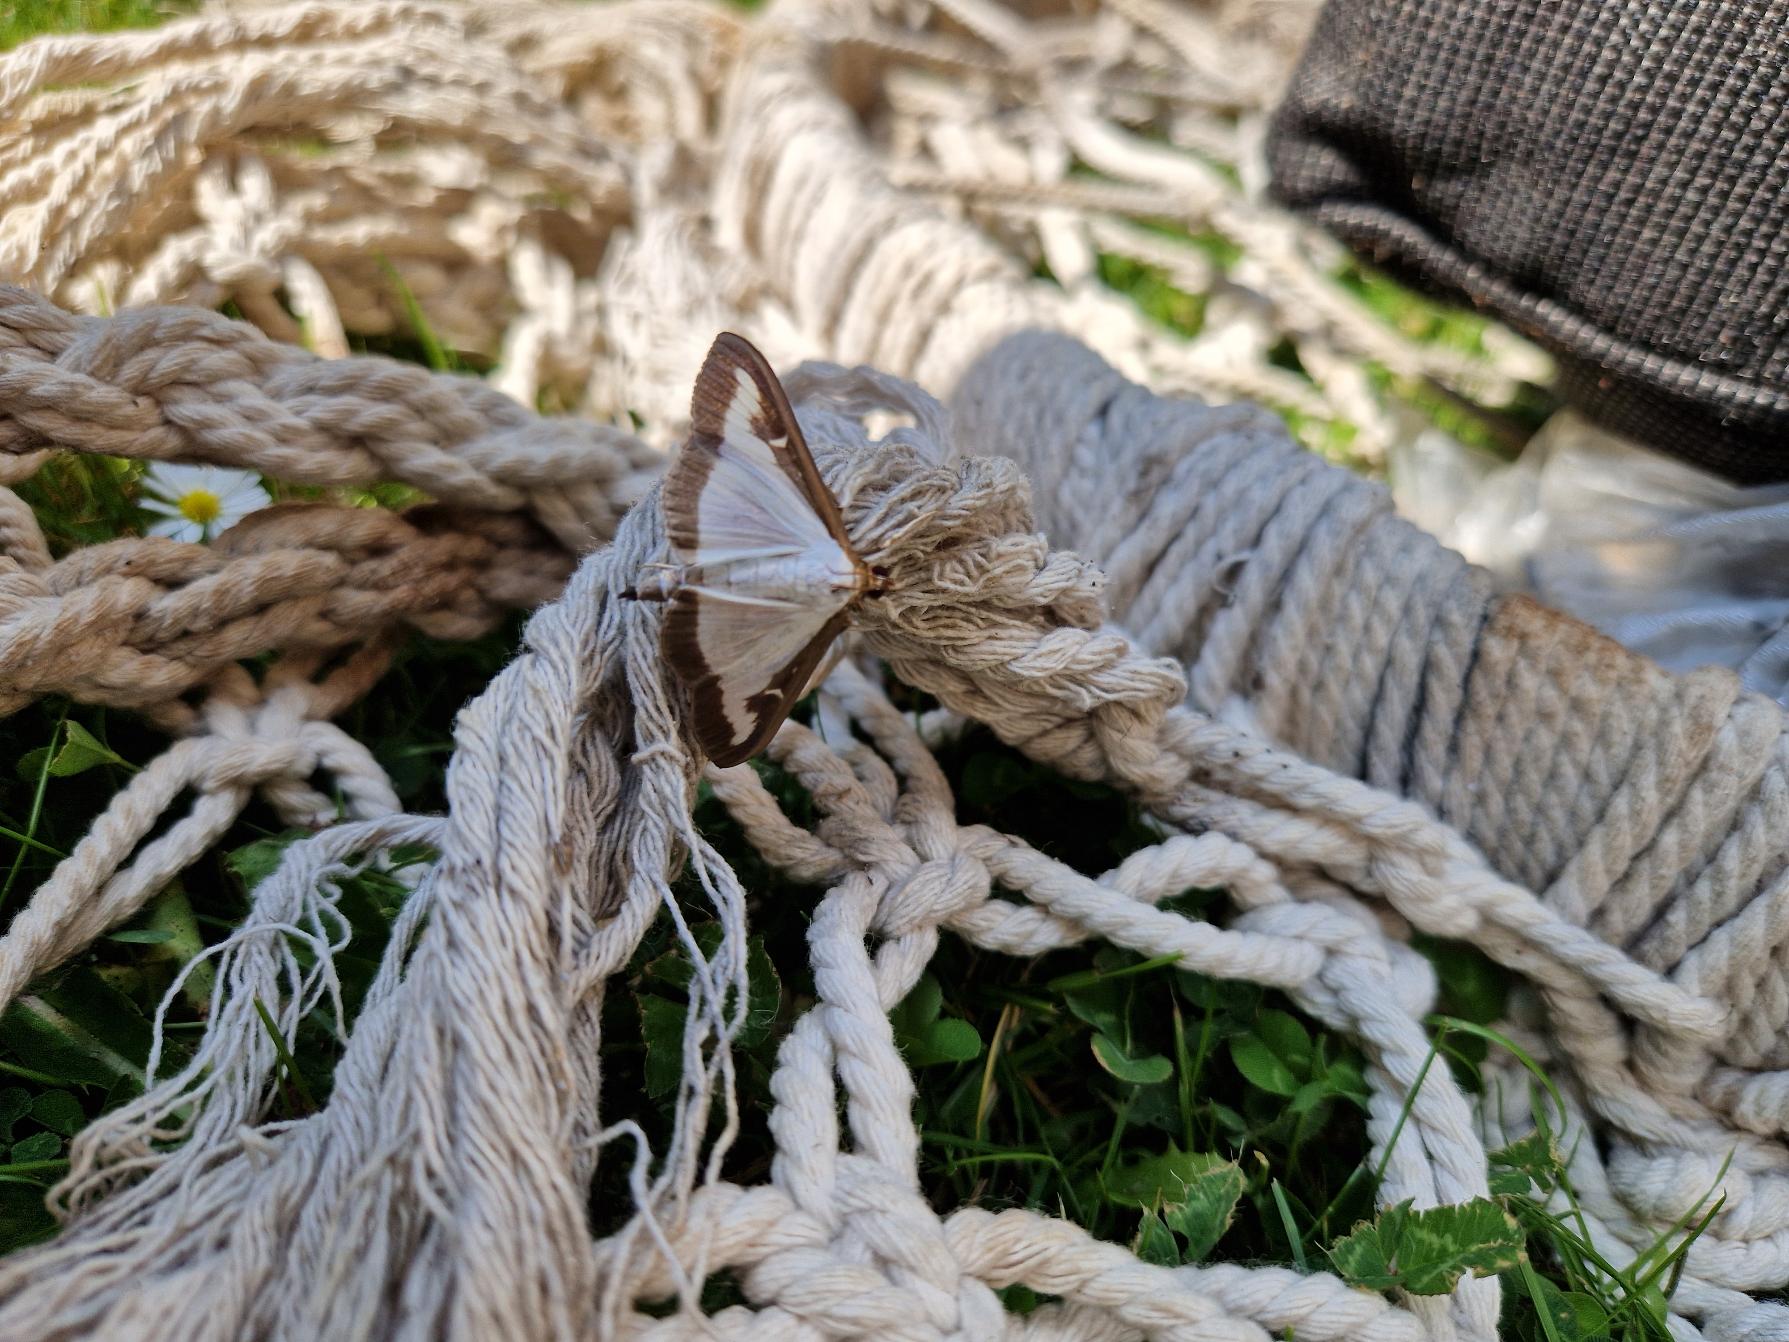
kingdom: Animalia
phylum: Arthropoda
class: Insecta
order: Lepidoptera
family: Crambidae
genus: Cydalima
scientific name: Cydalima perspectalis
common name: Buksbomhalvmøl
